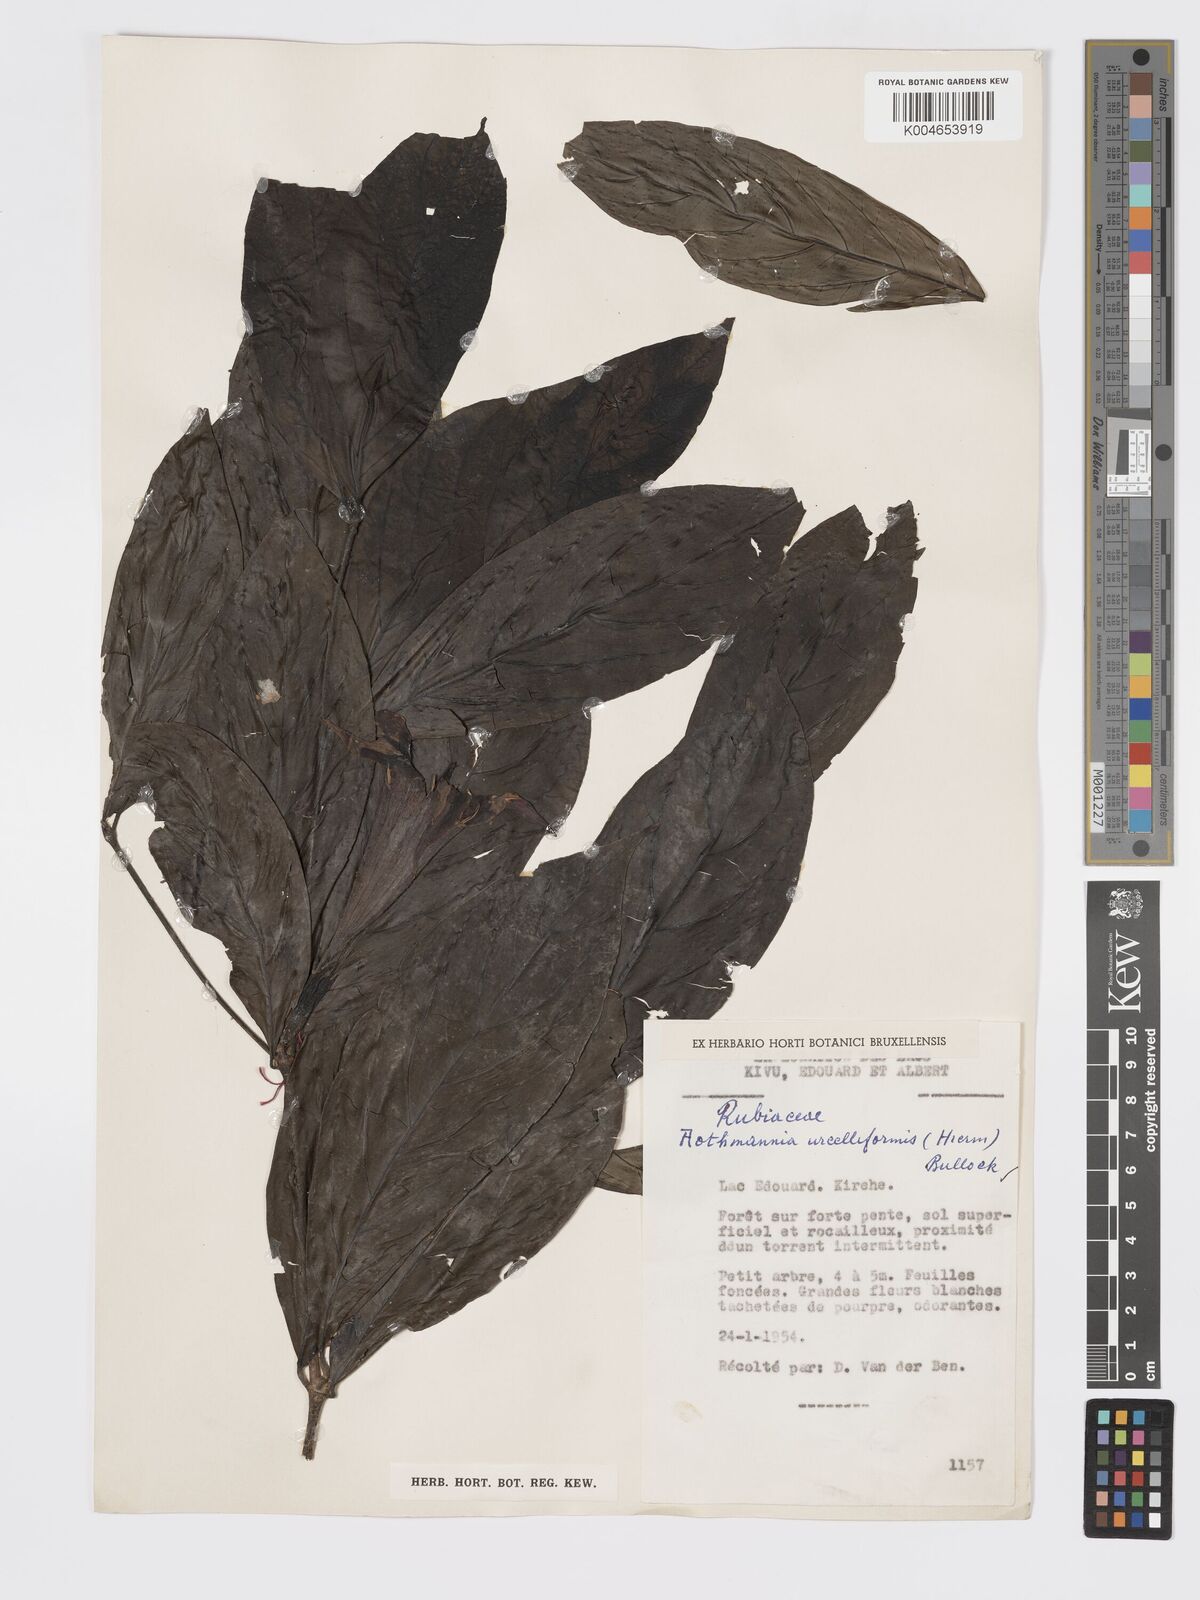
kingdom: Plantae
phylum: Tracheophyta
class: Magnoliopsida
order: Gentianales
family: Rubiaceae
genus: Rothmannia
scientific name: Rothmannia urcelliformis
